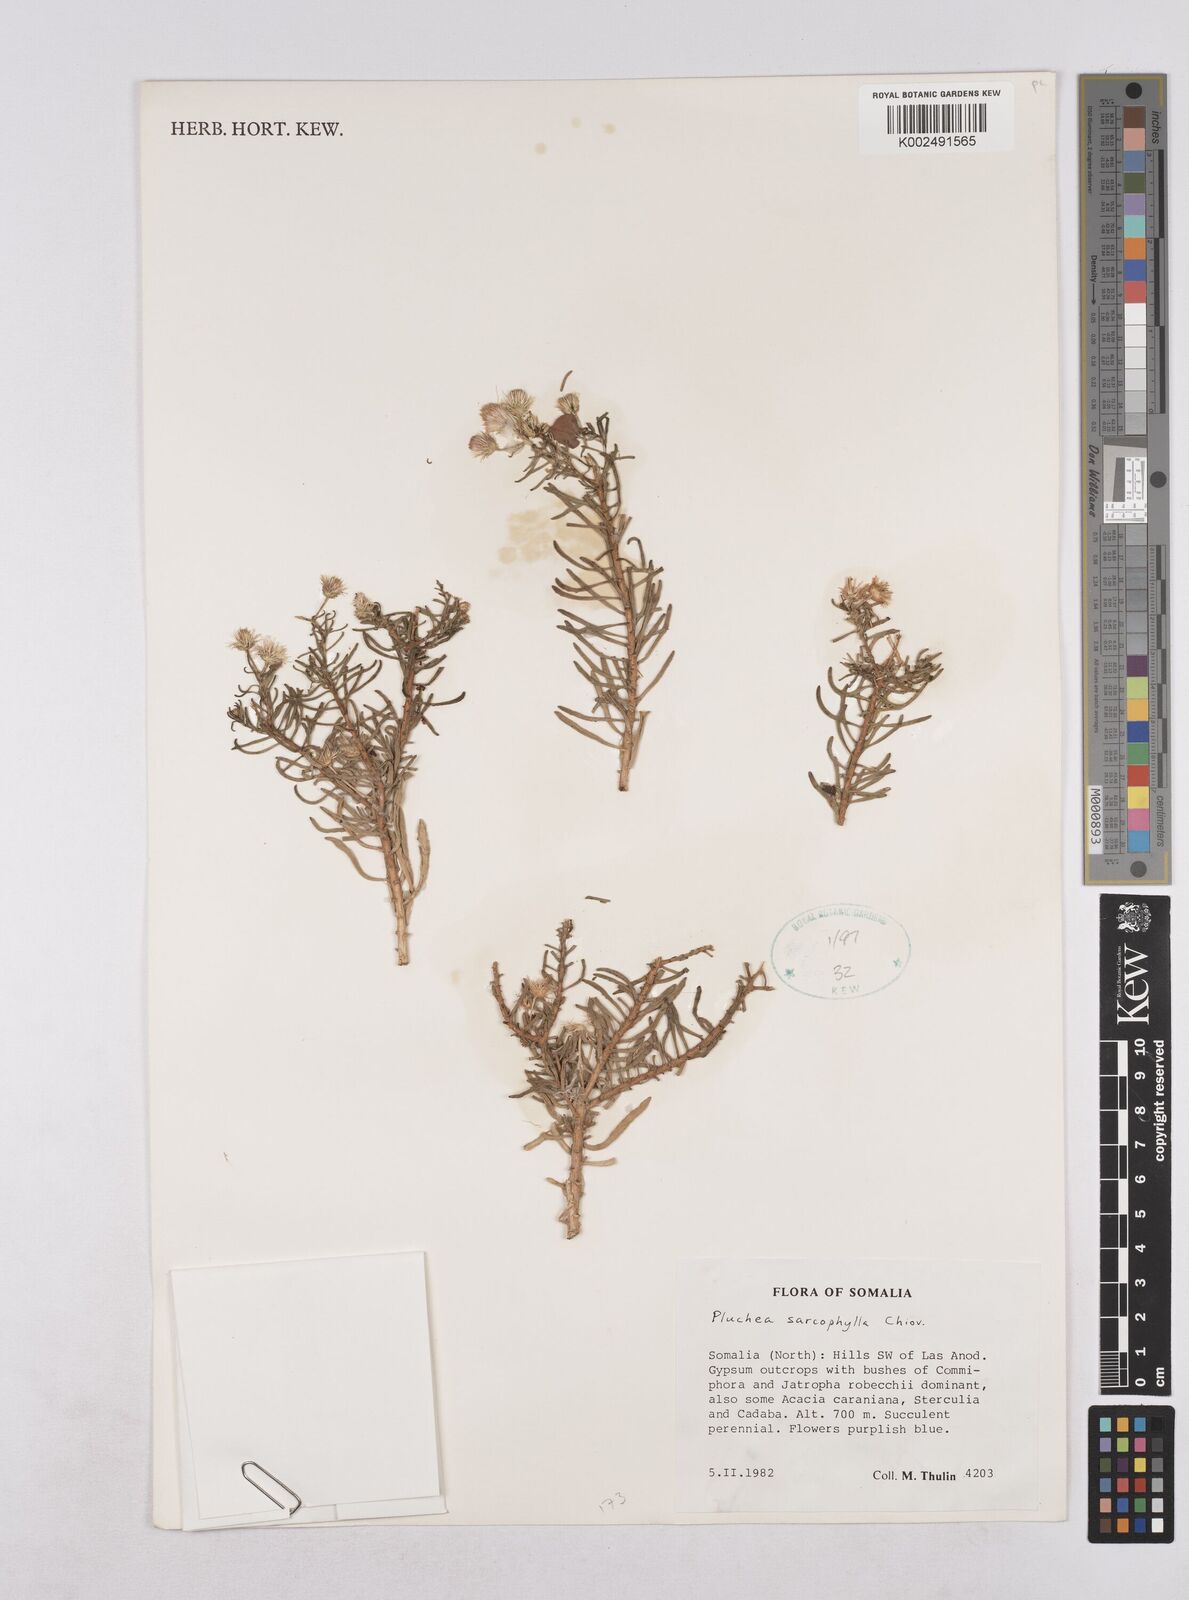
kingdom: Plantae
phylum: Tracheophyta
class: Magnoliopsida
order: Asterales
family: Asteraceae
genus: Pluchea
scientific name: Pluchea sarcophylla
